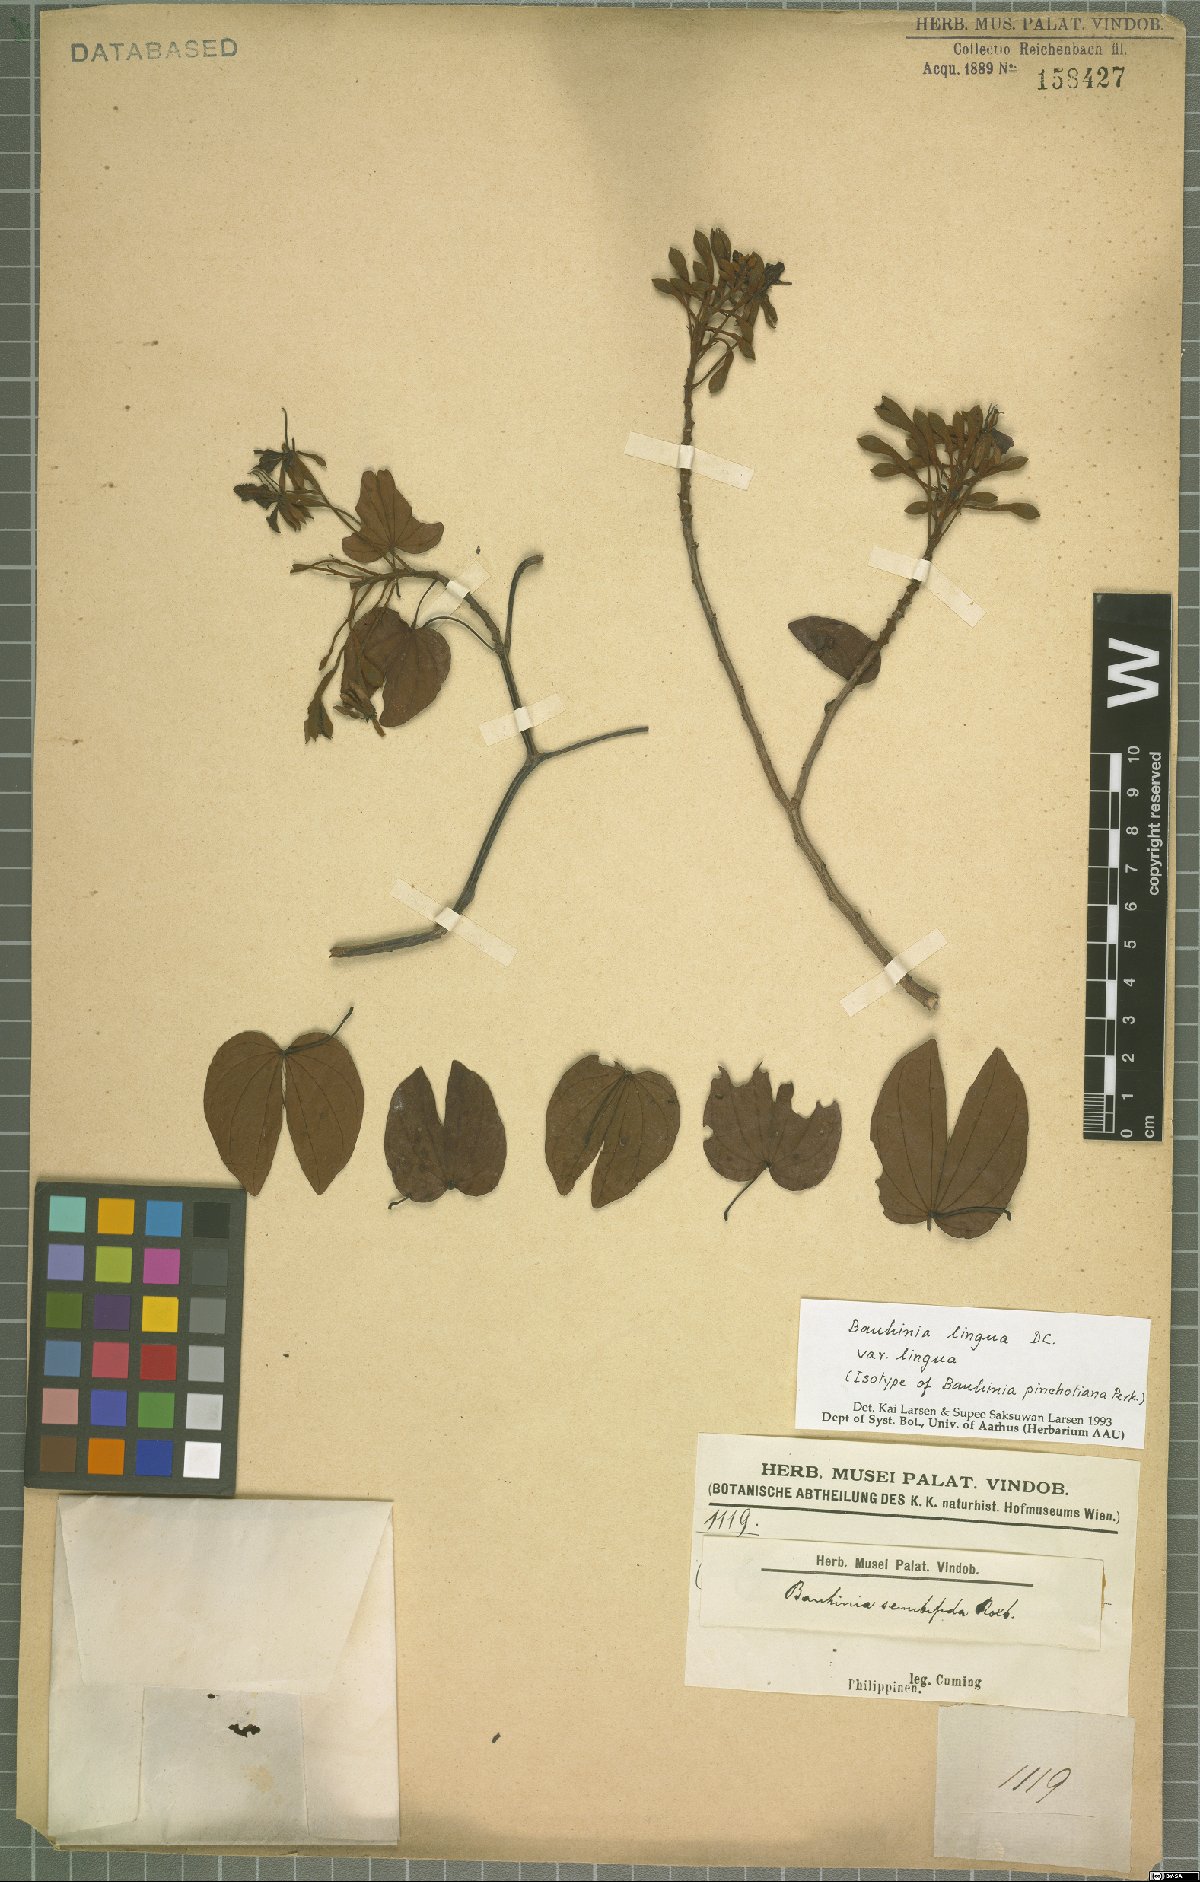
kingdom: Plantae
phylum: Tracheophyta
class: Magnoliopsida
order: Fabales
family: Fabaceae
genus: Phanera
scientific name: Phanera lingua
